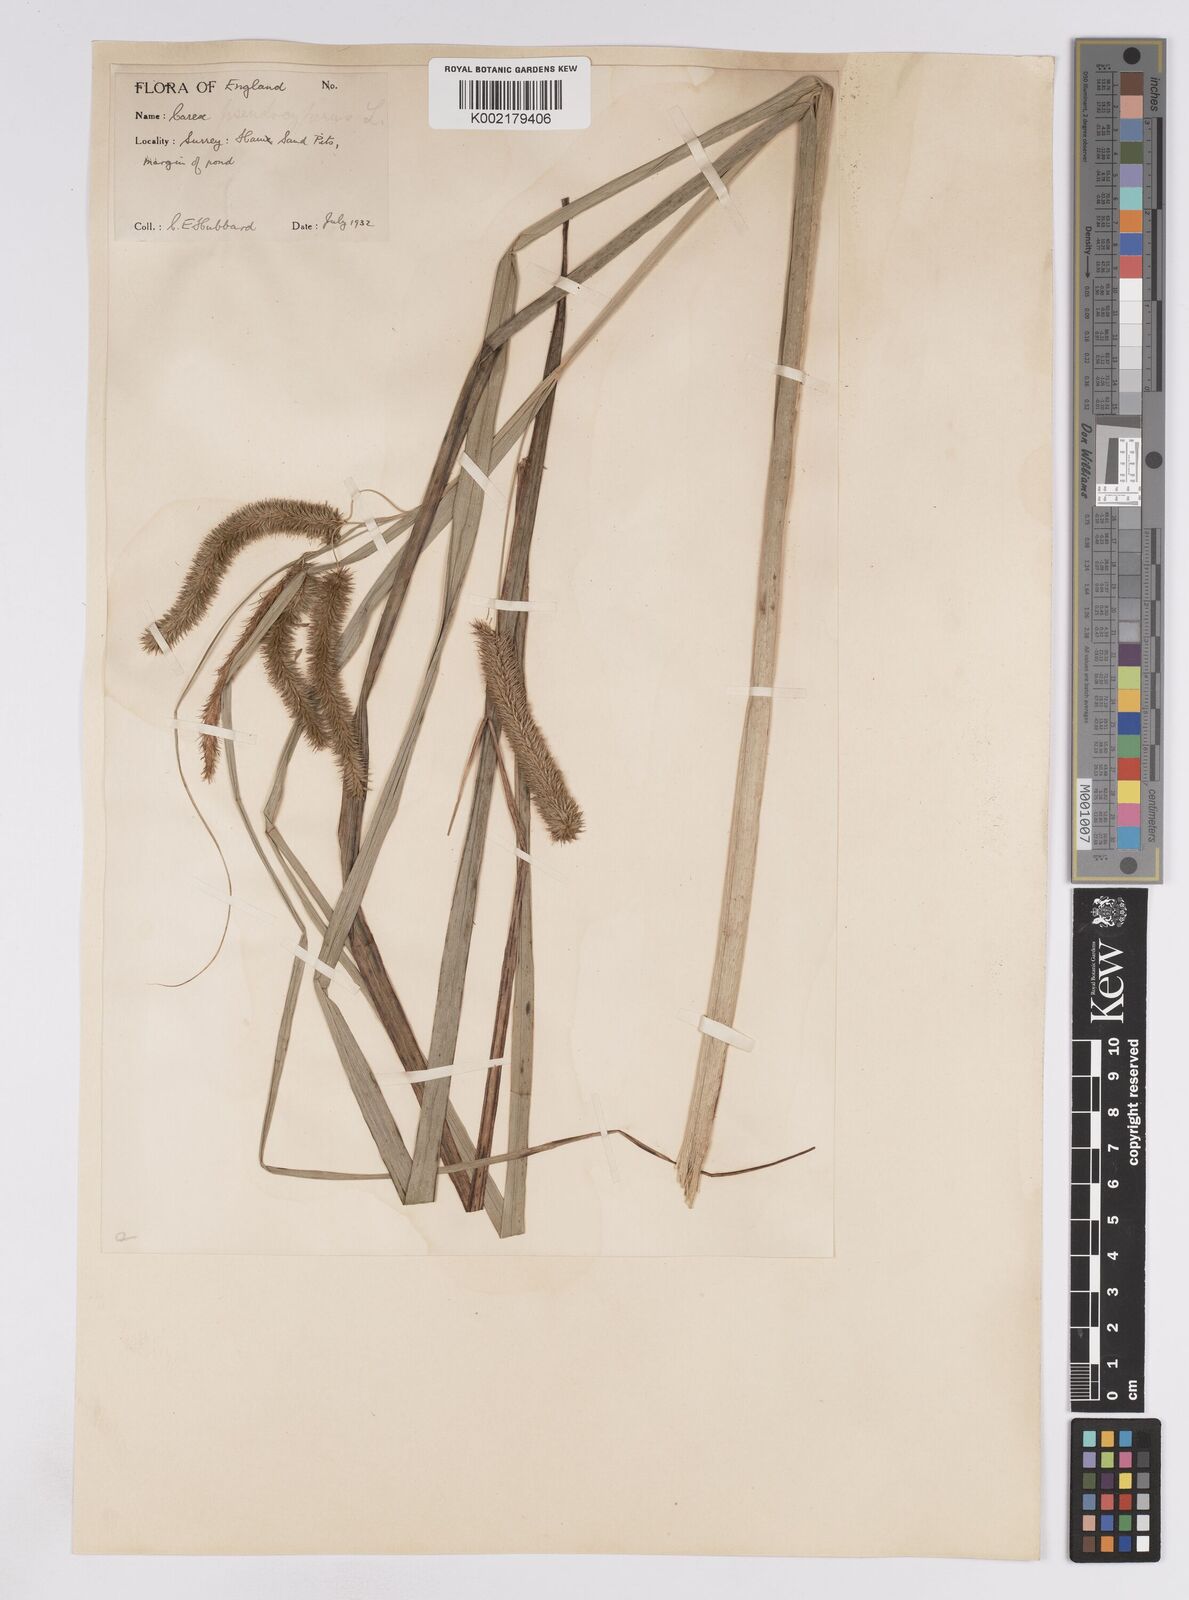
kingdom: Plantae
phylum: Tracheophyta
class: Liliopsida
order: Poales
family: Cyperaceae
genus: Carex
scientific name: Carex pseudocyperus
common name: Cyperus sedge
